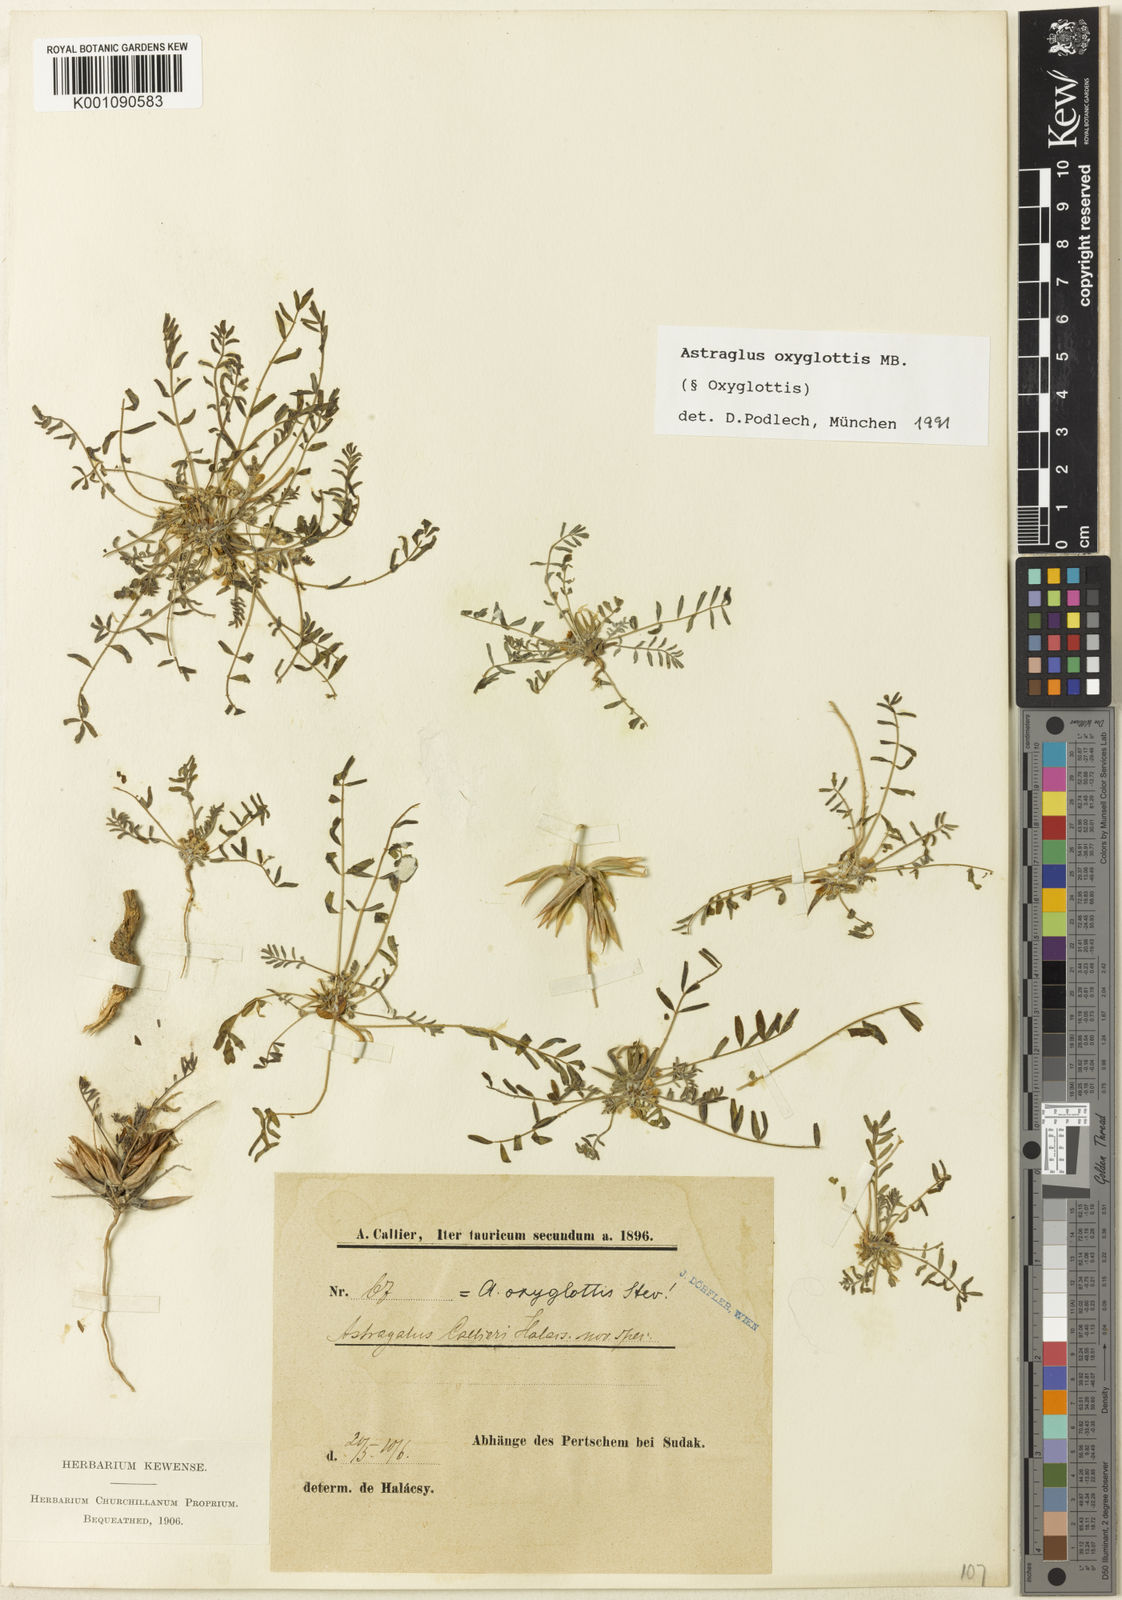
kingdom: Plantae
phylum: Tracheophyta
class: Magnoliopsida
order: Fabales
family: Fabaceae
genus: Astragalus
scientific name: Astragalus
